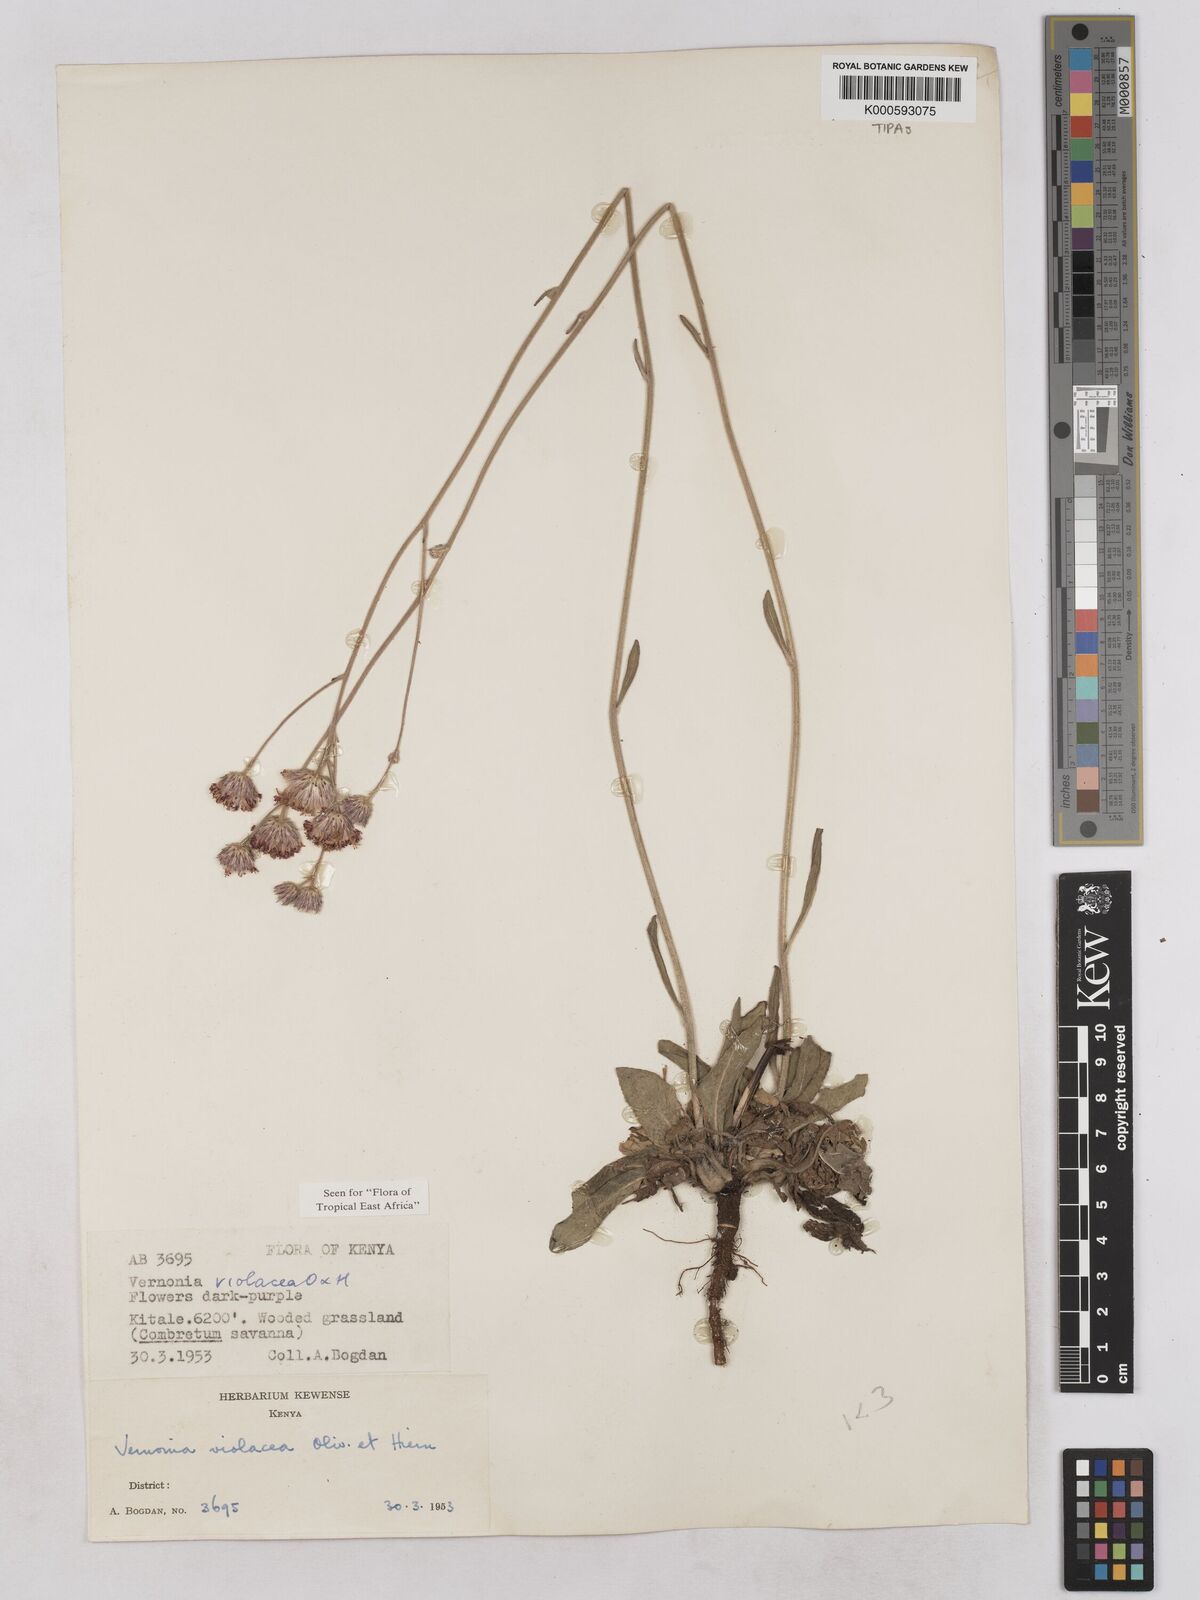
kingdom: Plantae
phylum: Tracheophyta
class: Magnoliopsida
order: Asterales
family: Asteraceae
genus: Vernonia
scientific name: Vernonia violacea
